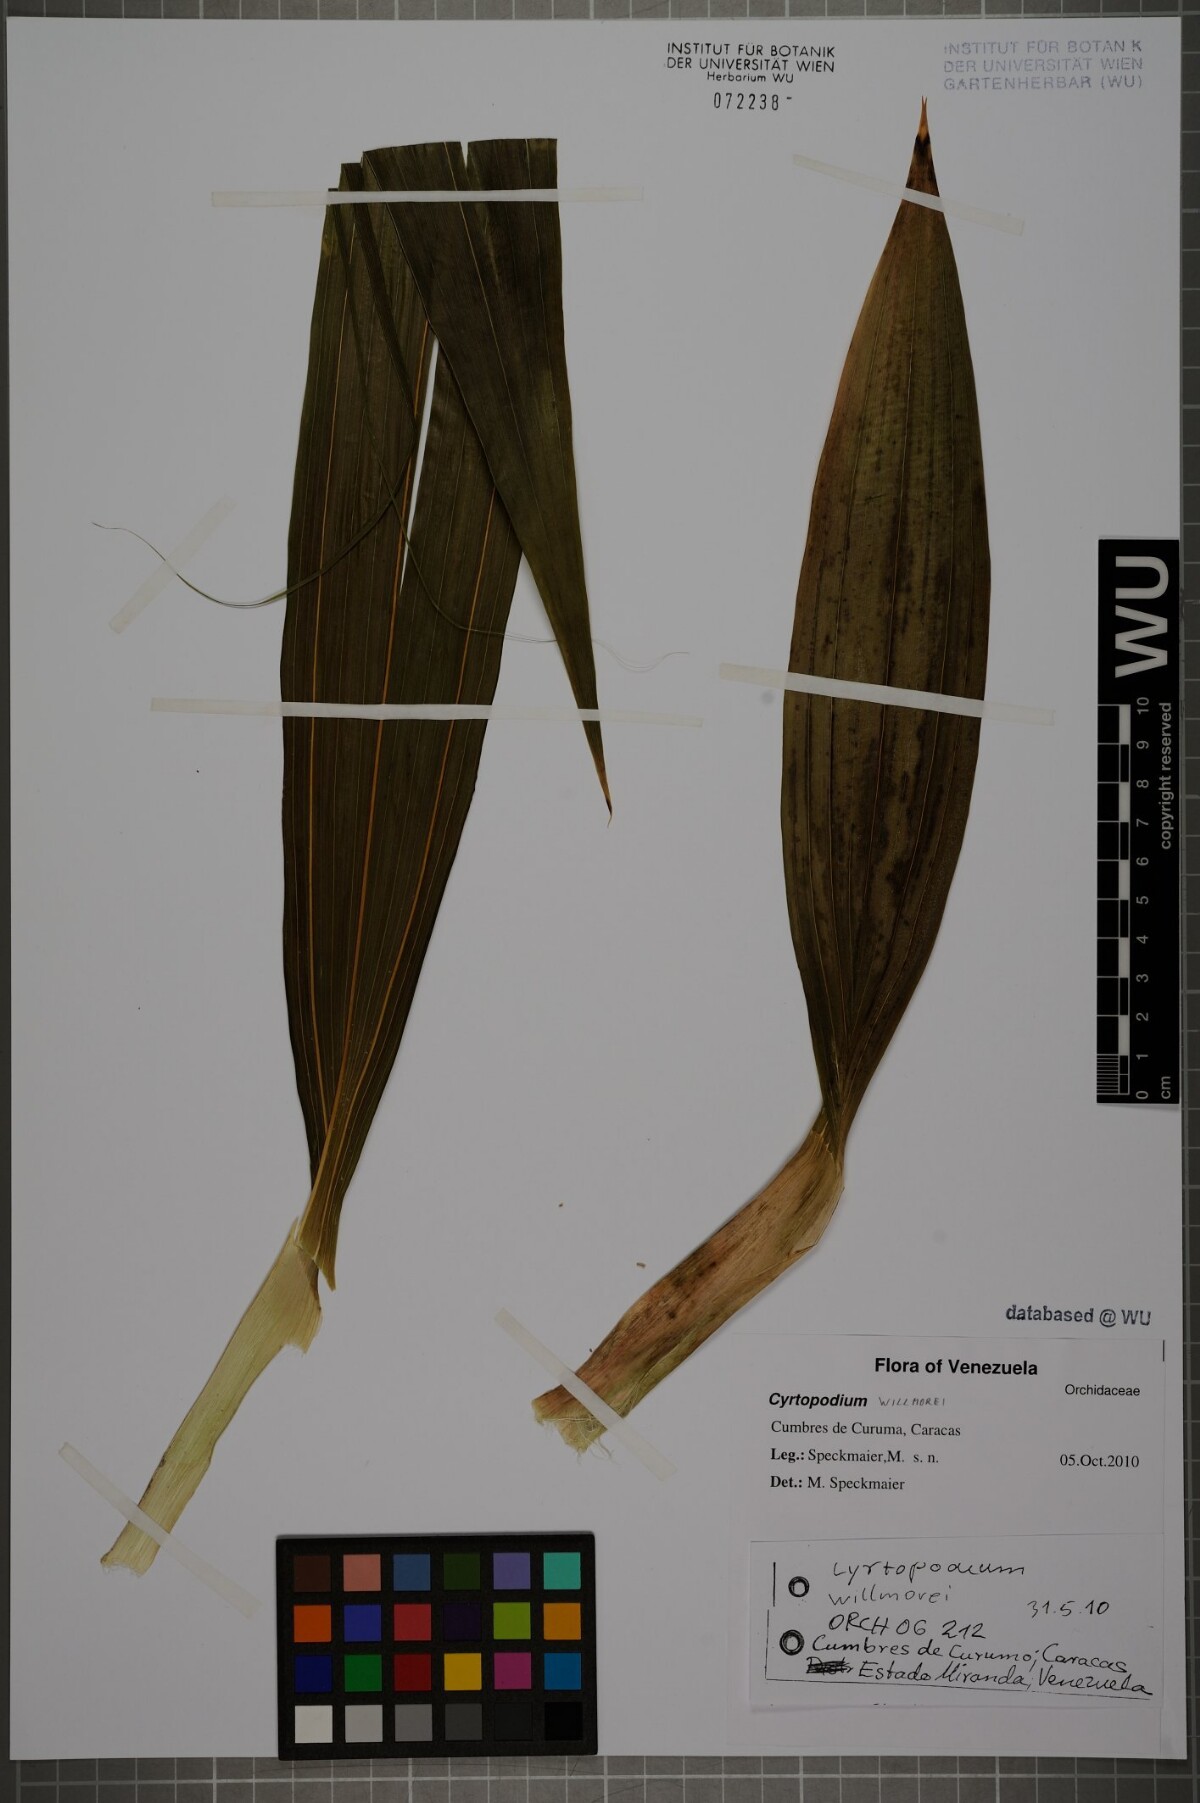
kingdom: Plantae
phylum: Tracheophyta
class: Liliopsida
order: Asparagales
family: Orchidaceae
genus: Cyrtopodium
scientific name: Cyrtopodium willmorei
